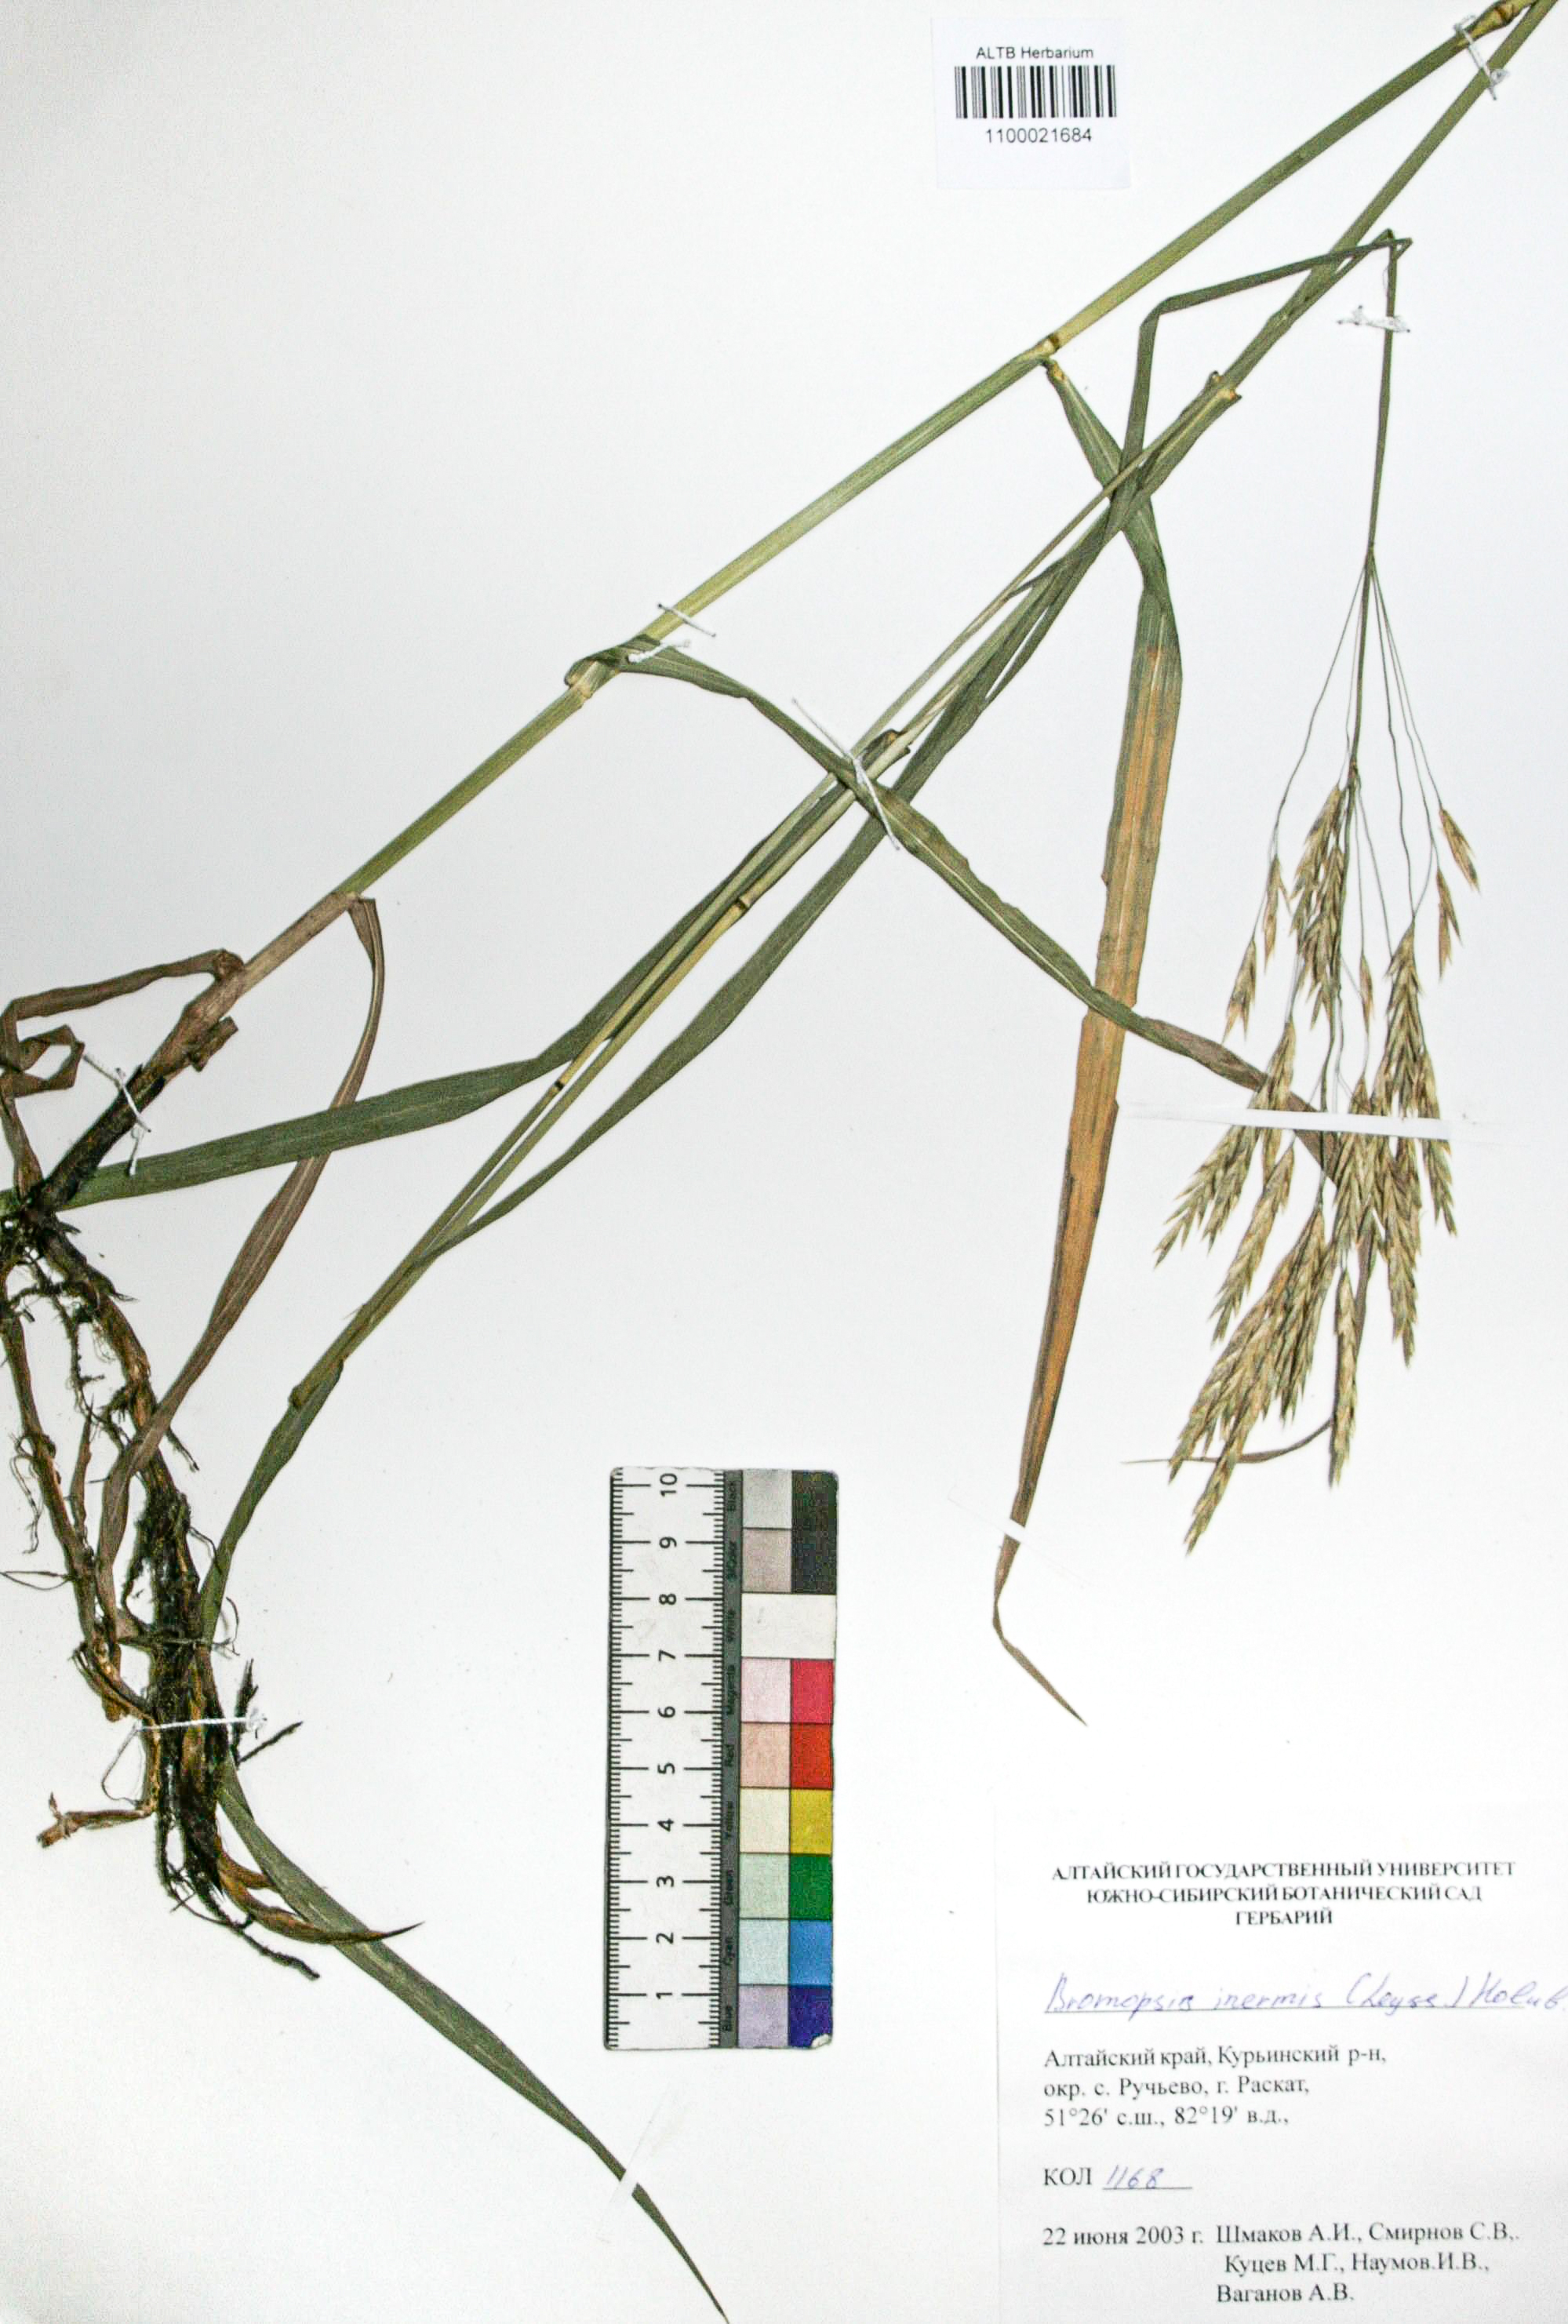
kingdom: Plantae
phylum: Tracheophyta
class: Liliopsida
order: Poales
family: Poaceae
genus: Bromus
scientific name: Bromus inermis
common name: Smooth brome
